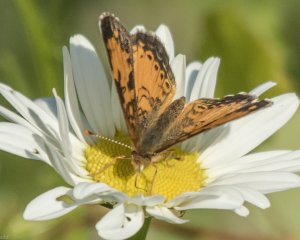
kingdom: Animalia
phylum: Arthropoda
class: Insecta
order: Lepidoptera
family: Nymphalidae
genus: Phyciodes
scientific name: Phyciodes tharos
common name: Northern Crescent
